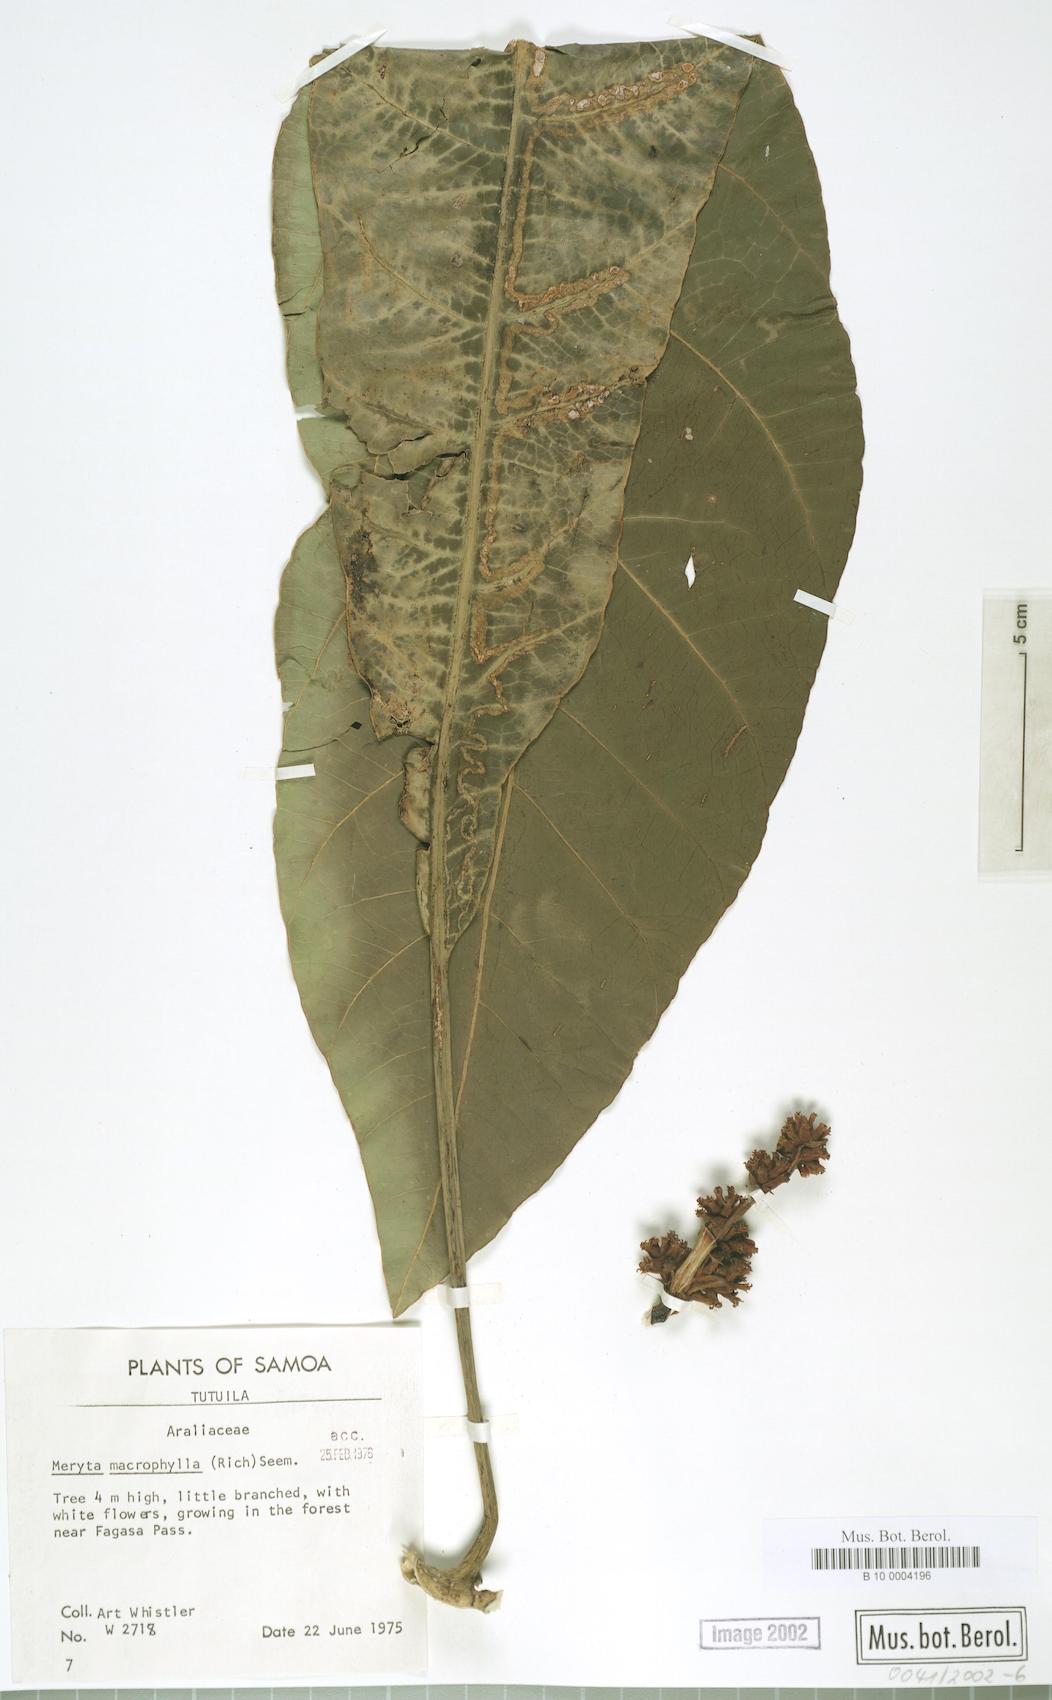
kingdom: Plantae
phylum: Tracheophyta
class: Magnoliopsida
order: Apiales
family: Araliaceae
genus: Meryta
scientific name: Meryta denhamii
